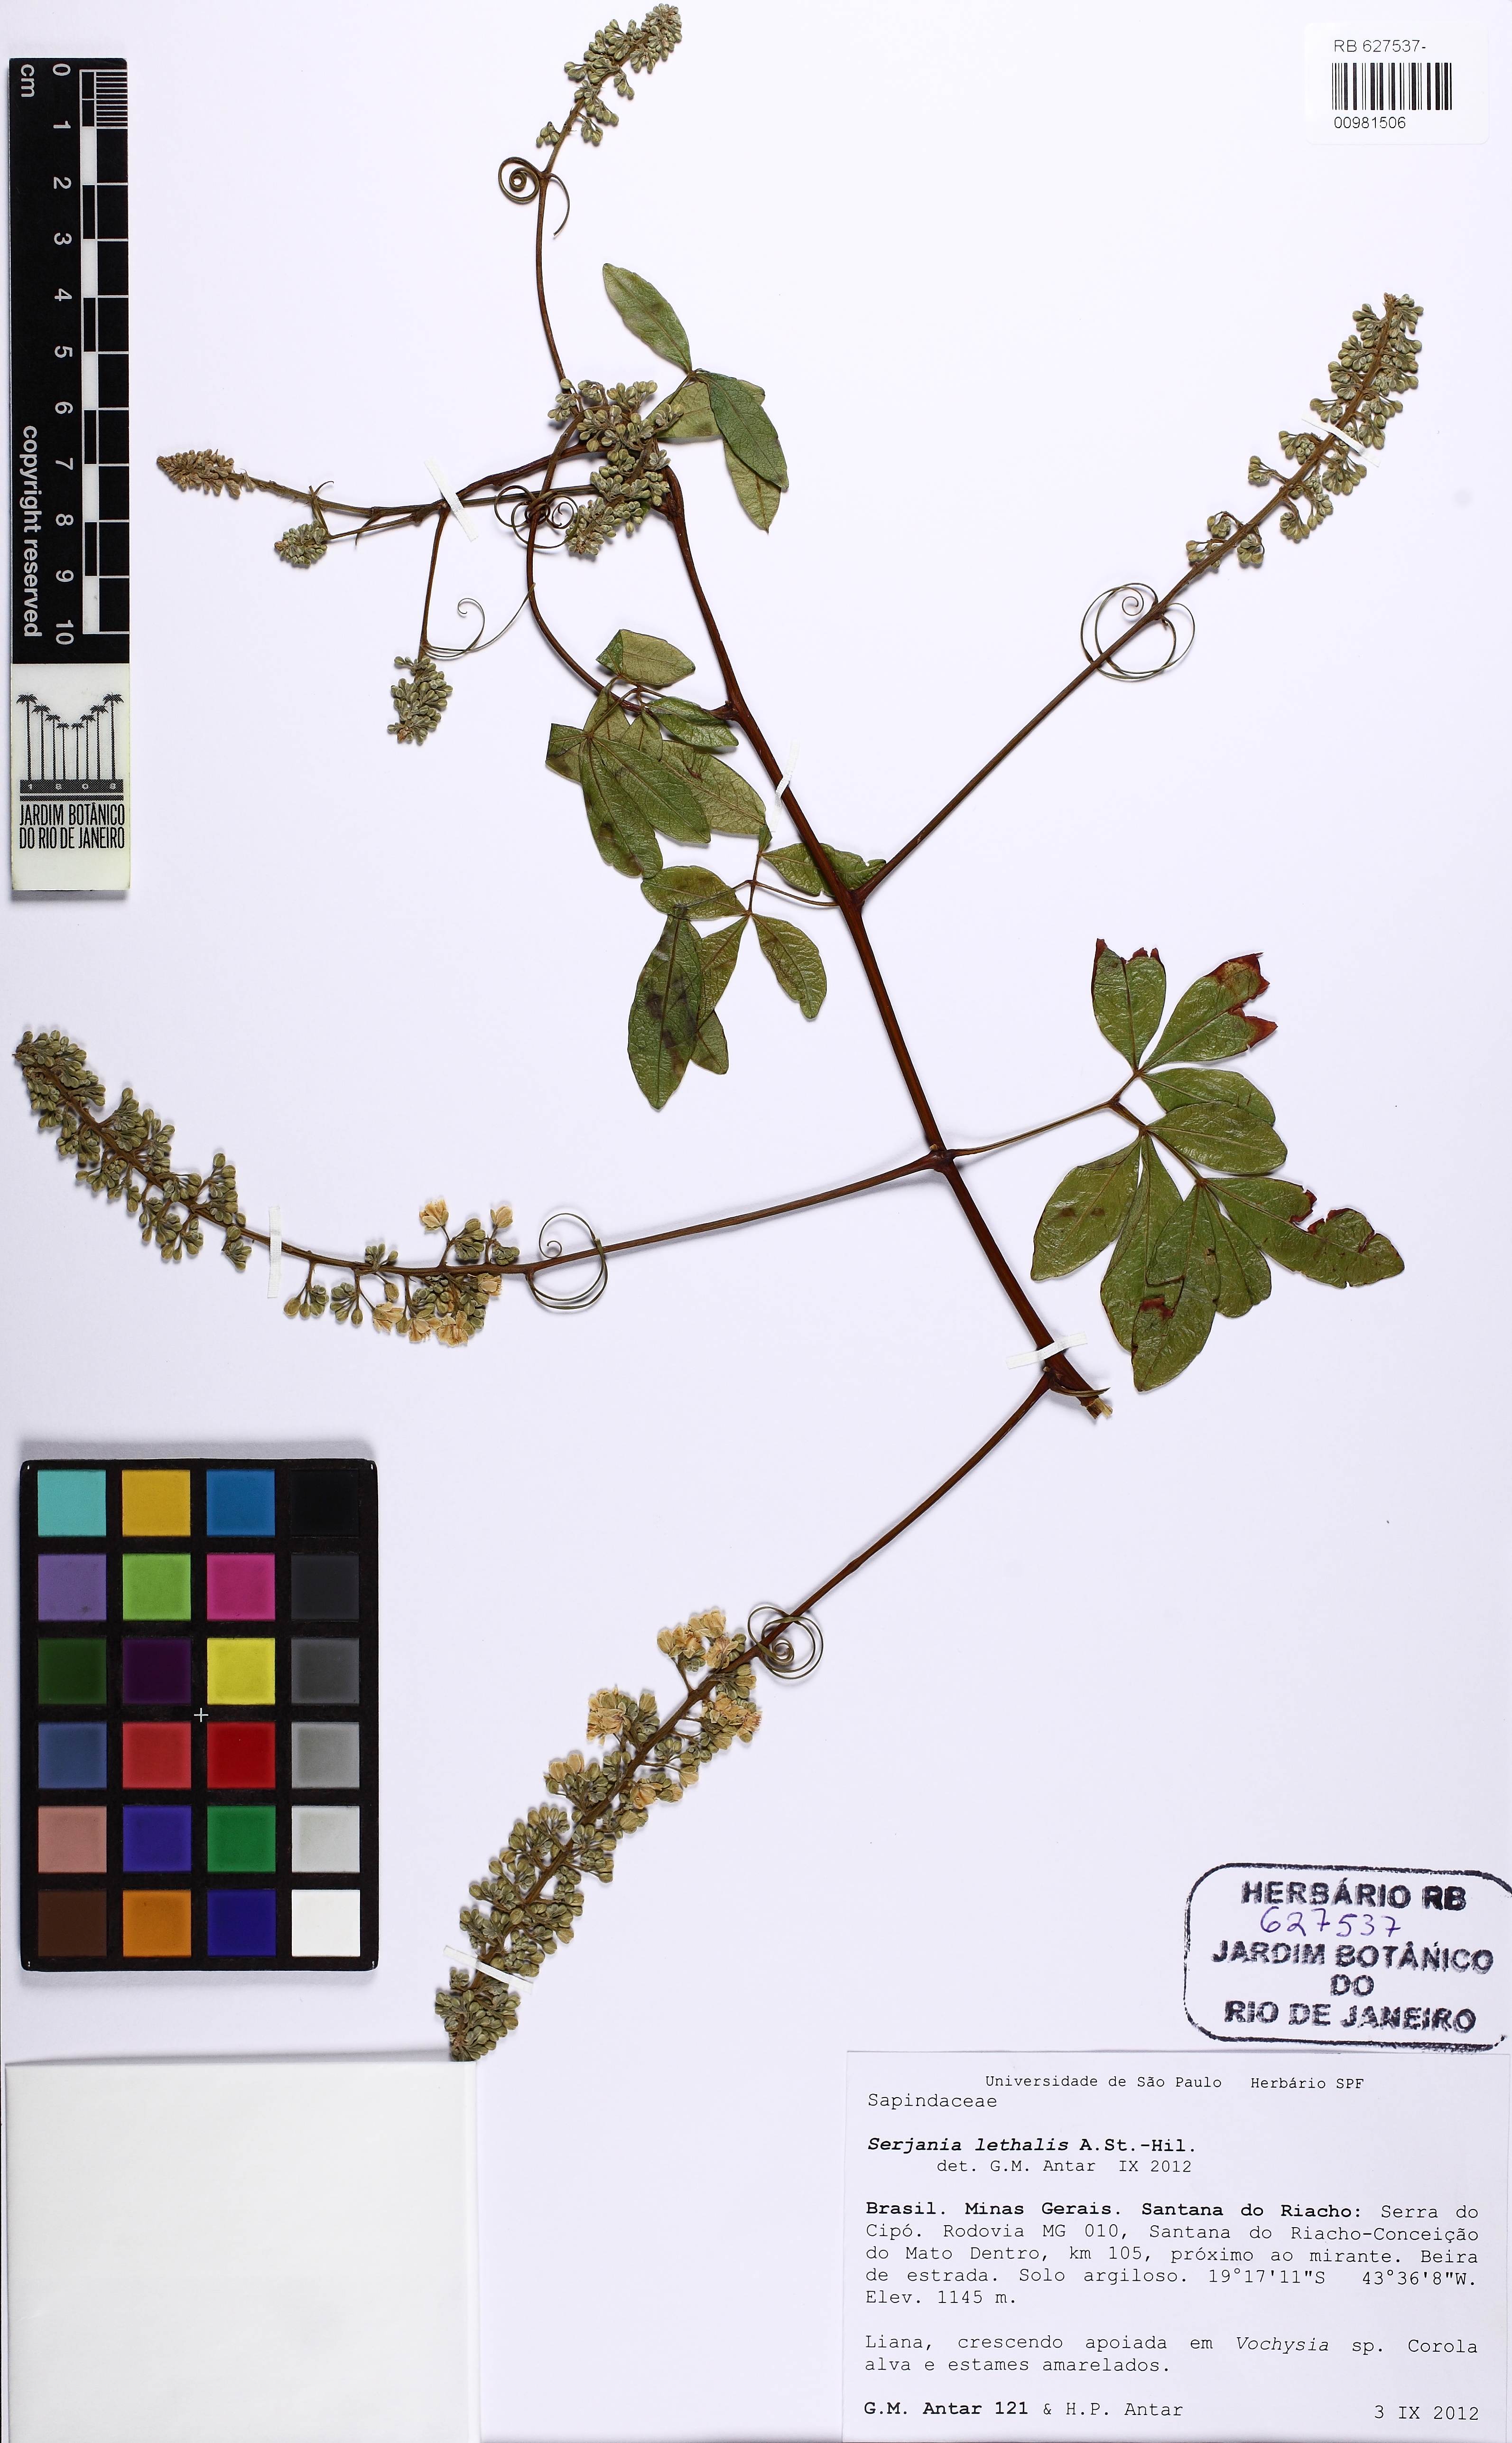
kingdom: Plantae
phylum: Tracheophyta
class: Magnoliopsida
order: Sapindales
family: Sapindaceae
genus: Serjania
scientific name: Serjania lethalis
